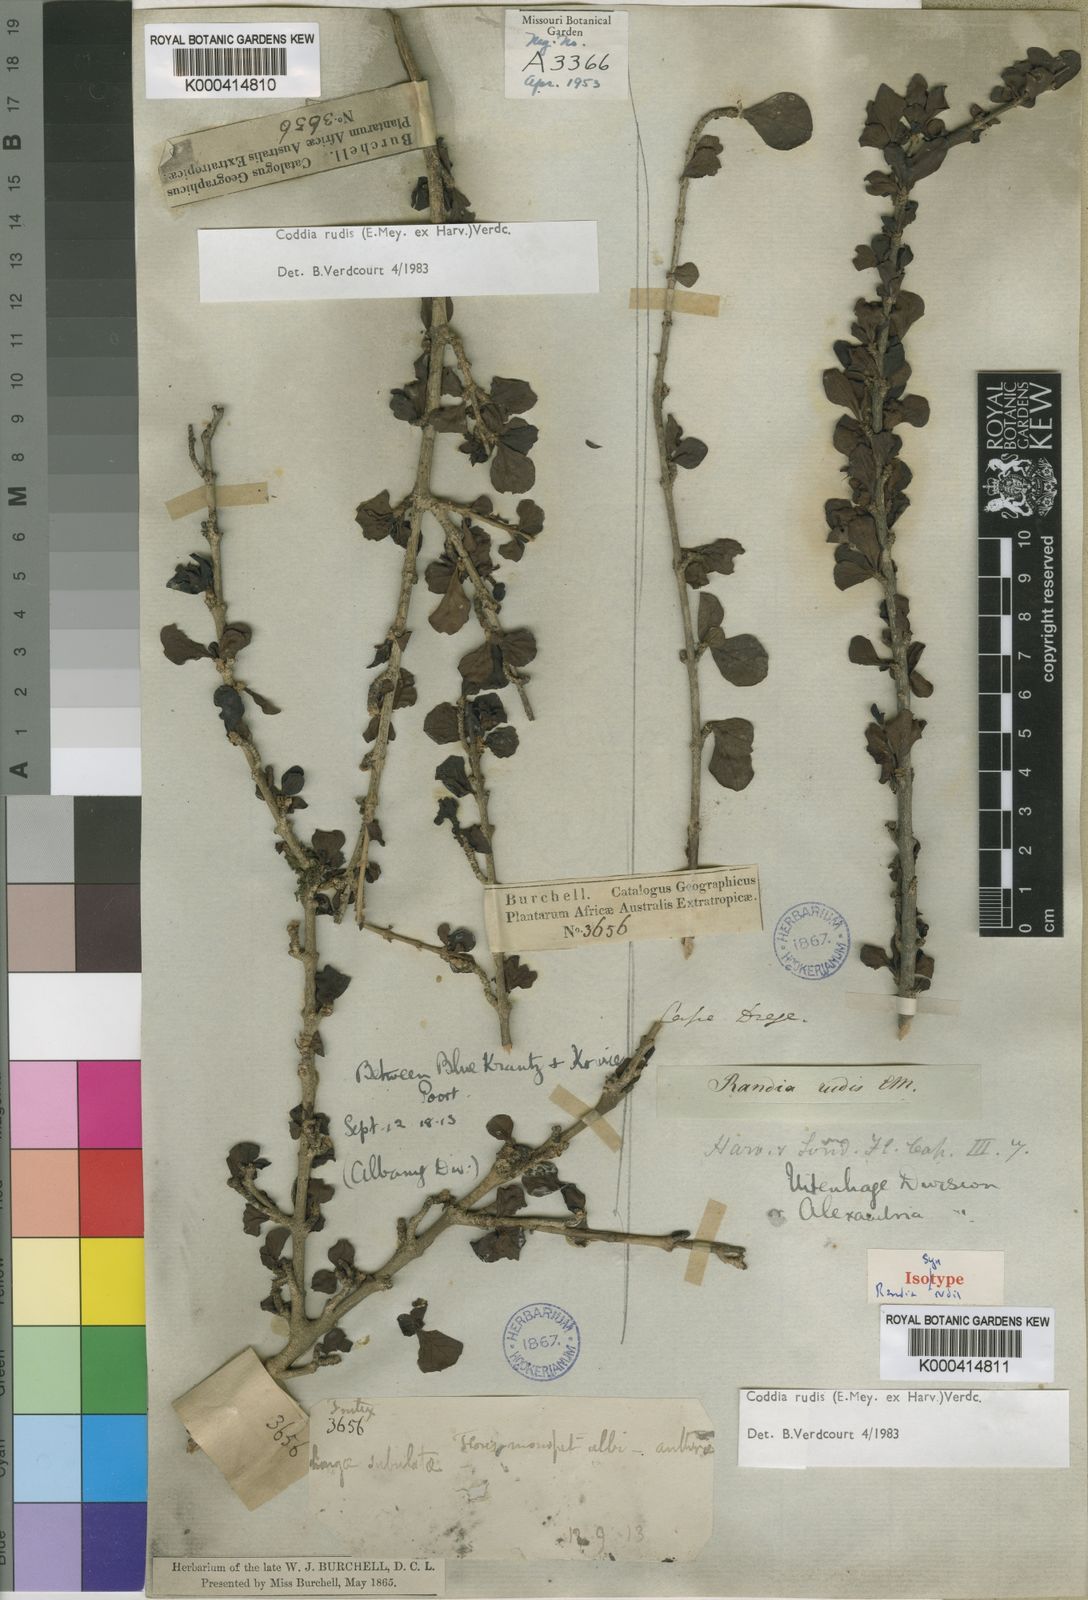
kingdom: Plantae
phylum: Tracheophyta
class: Magnoliopsida
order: Gentianales
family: Rubiaceae
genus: Coddia
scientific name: Coddia rudis
